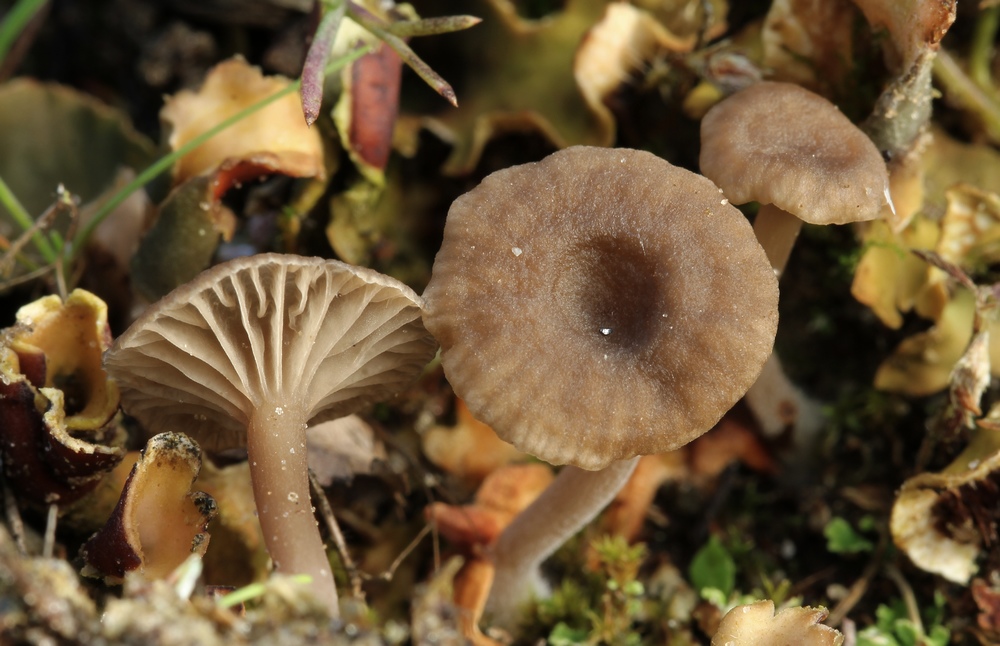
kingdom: Fungi
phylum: Basidiomycota
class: Agaricomycetes
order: Agaricales
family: Hygrophoraceae
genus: Arrhenia
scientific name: Arrhenia peltigerina
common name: skjoldlav-fontænehat
